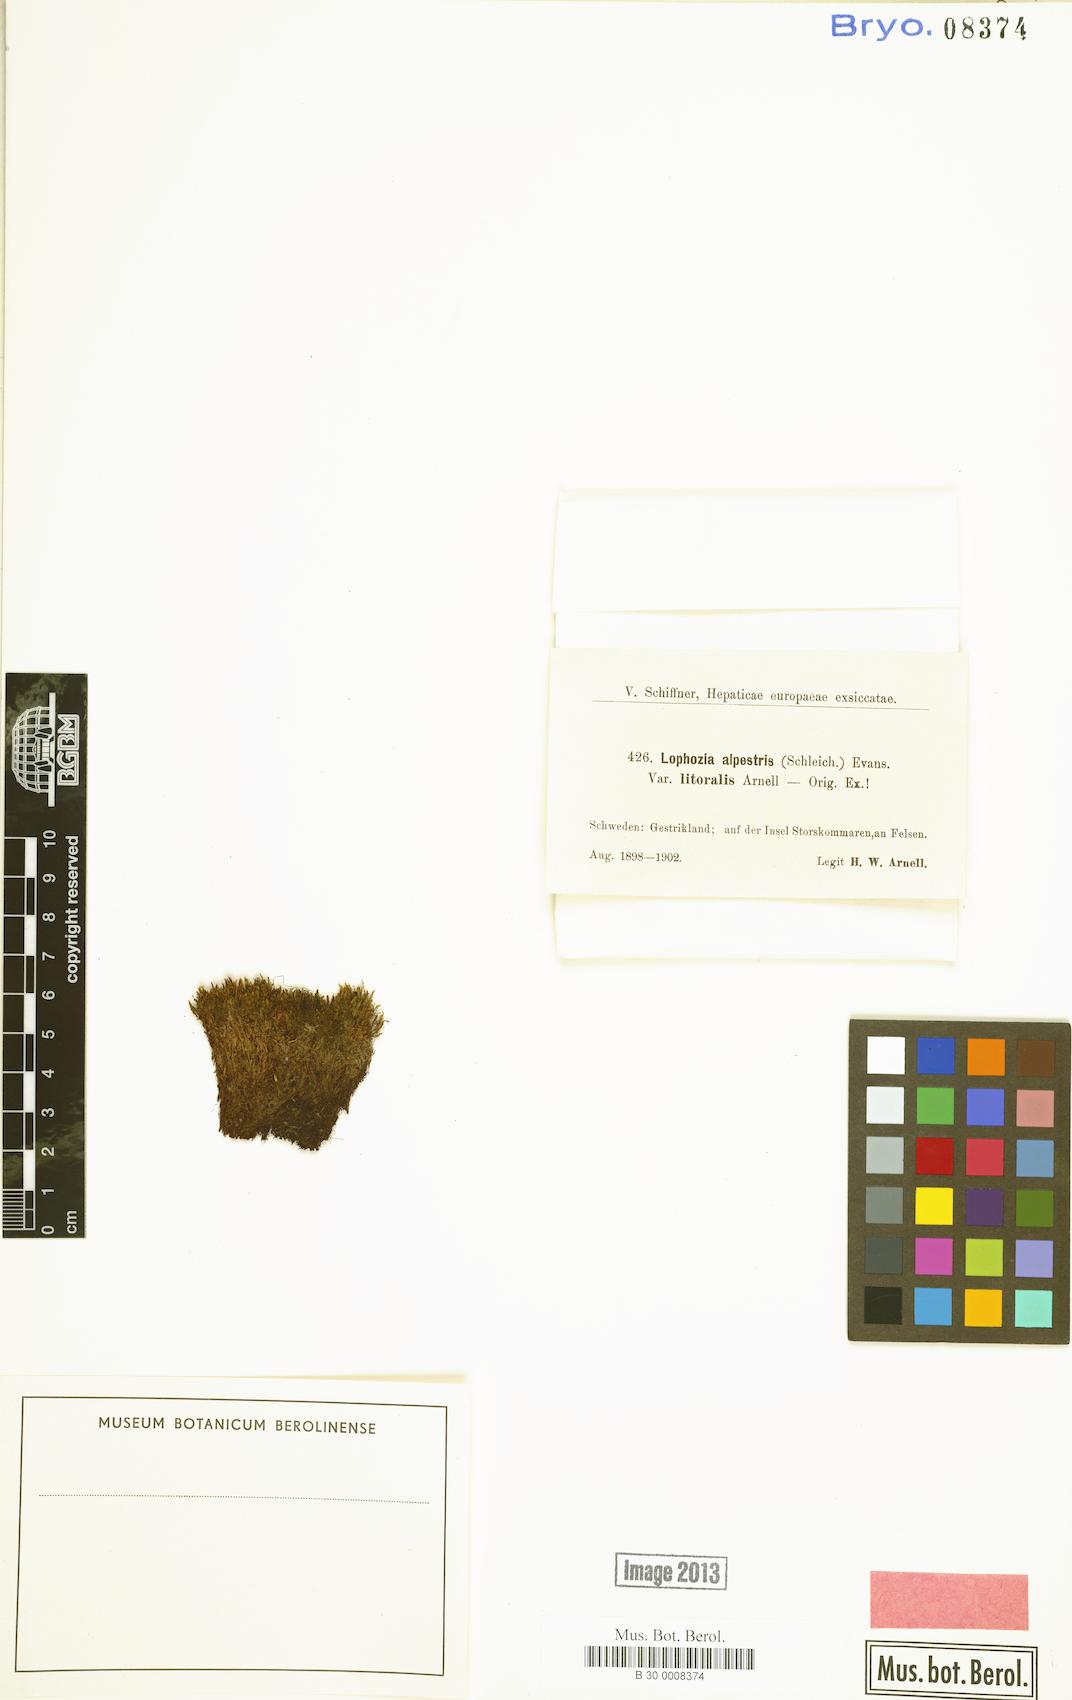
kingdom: Plantae
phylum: Marchantiophyta
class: Jungermanniopsida
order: Jungermanniales
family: Jungermanniaceae
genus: Mesoptychia
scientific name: Mesoptychia collaris
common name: Collared notchwort
